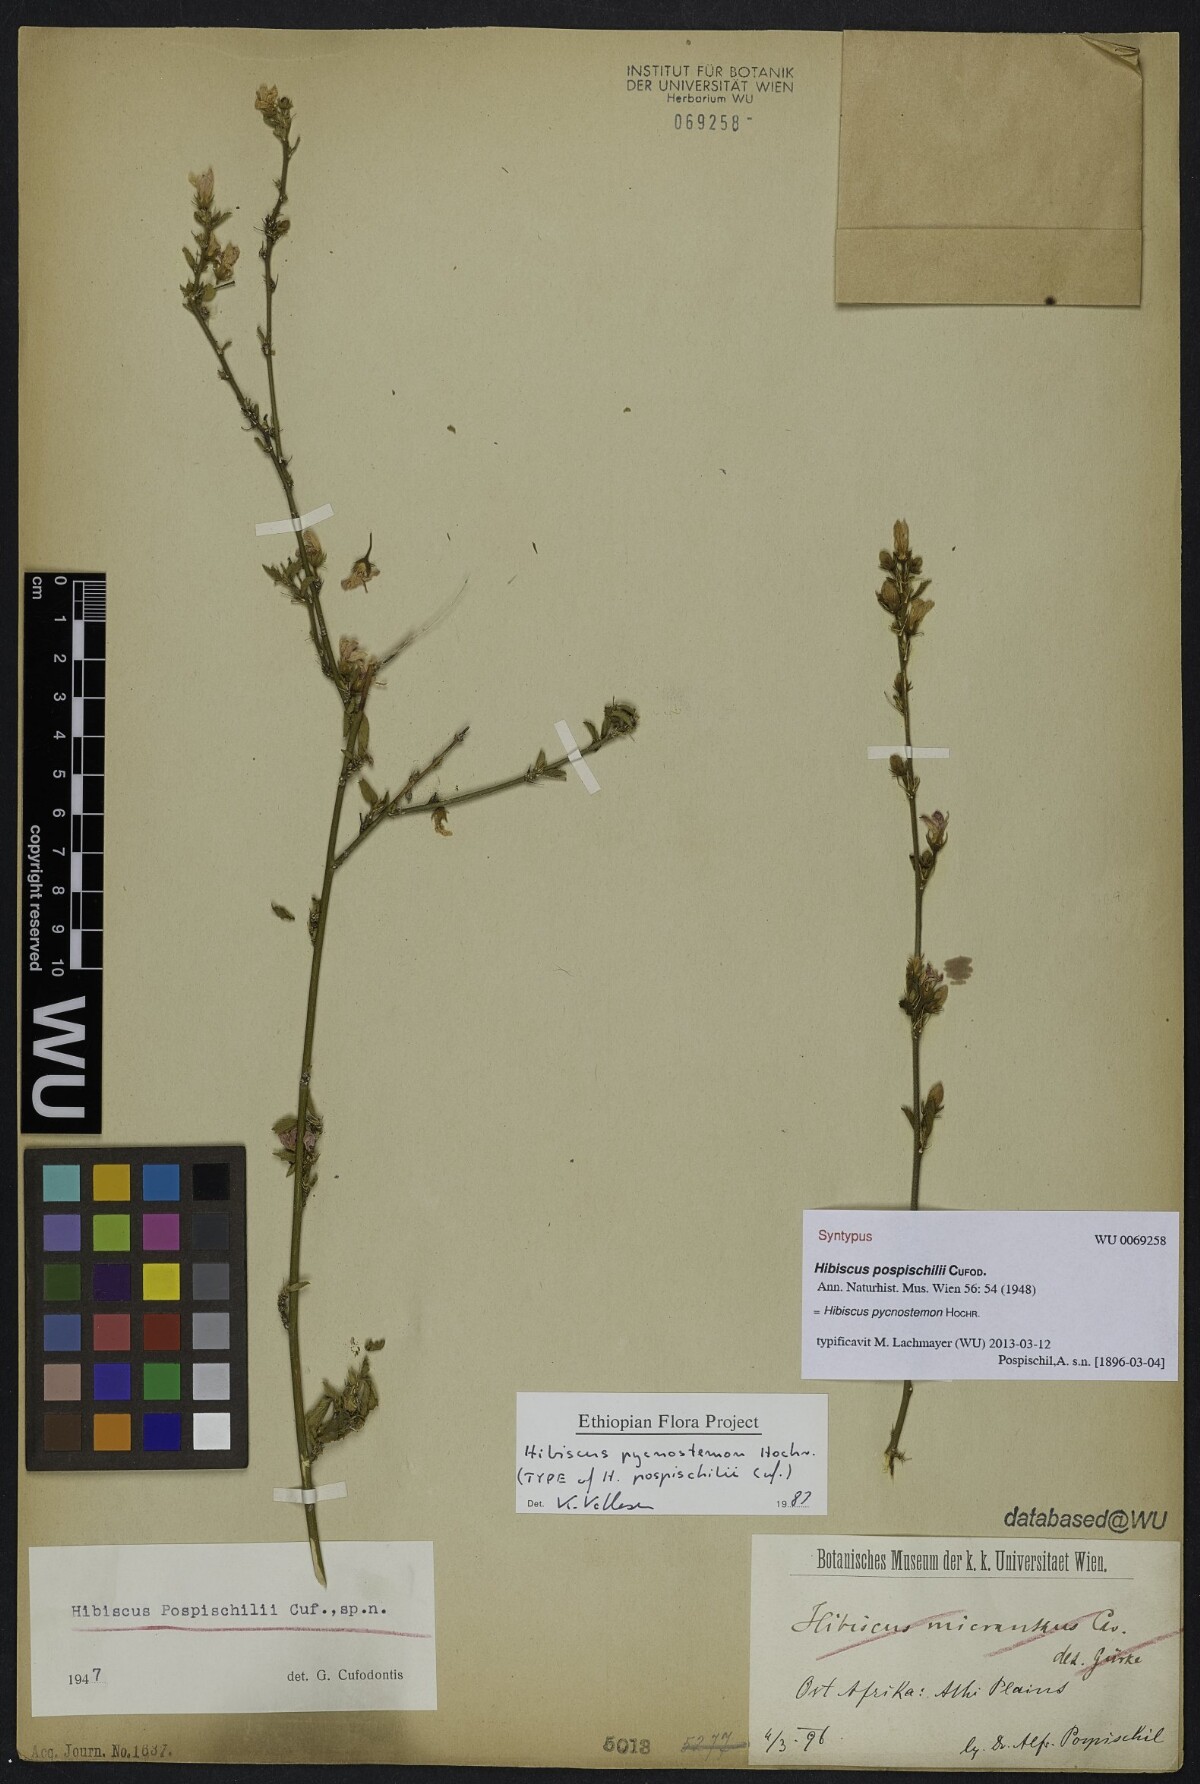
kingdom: Plantae
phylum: Tracheophyta
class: Magnoliopsida
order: Malvales
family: Malvaceae
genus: Hibiscus
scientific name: Hibiscus pycnostemon
